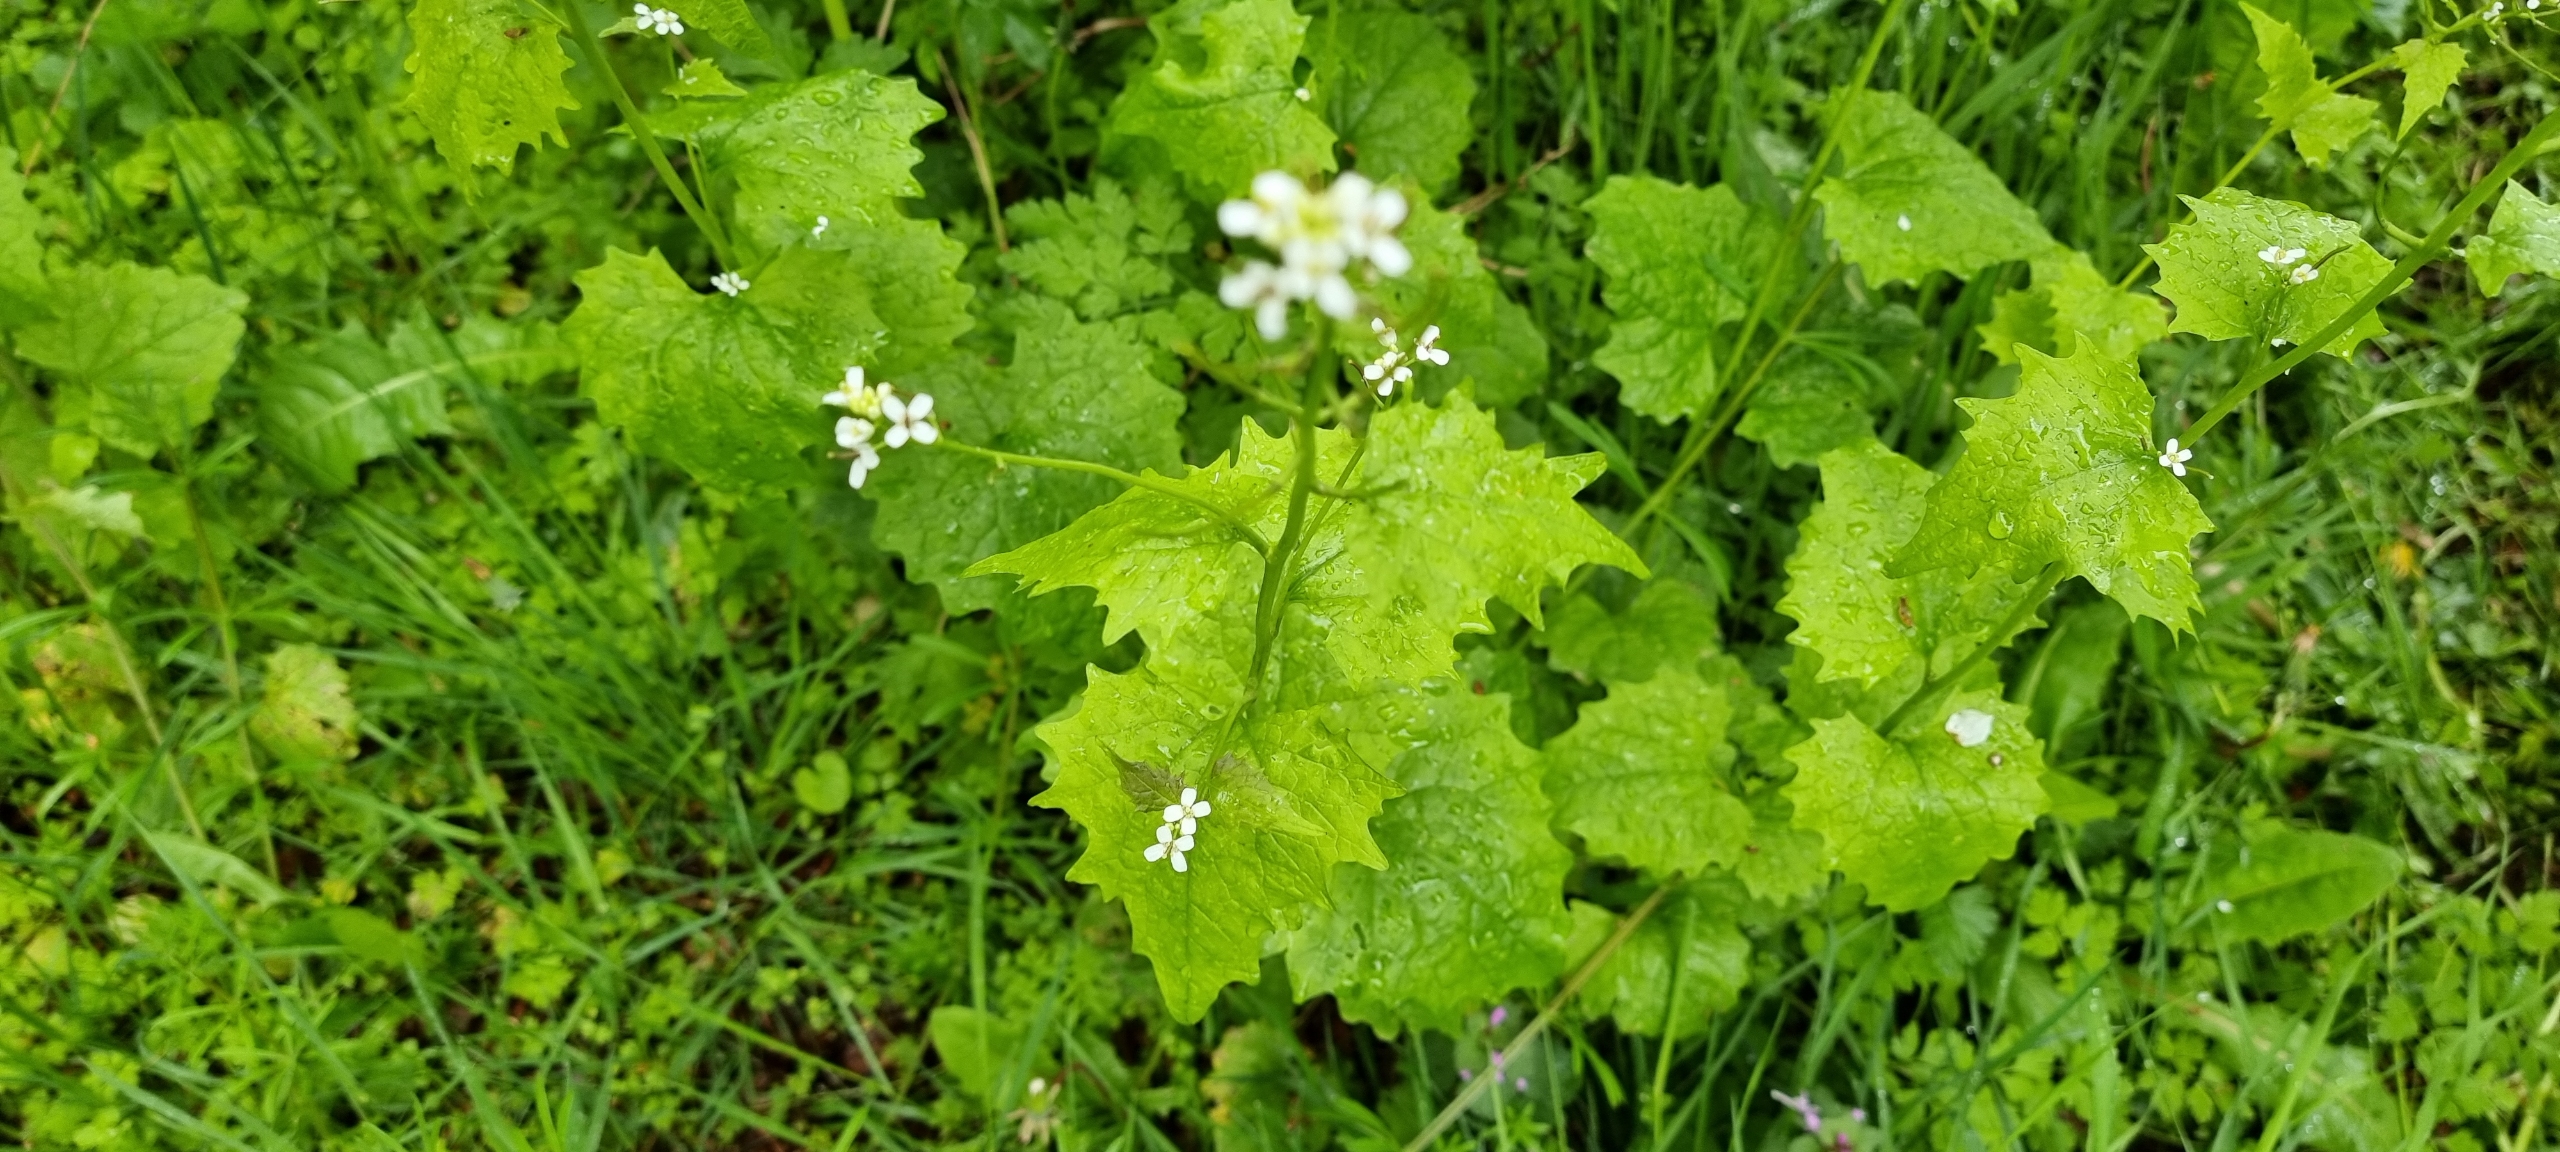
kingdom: Plantae
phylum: Tracheophyta
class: Magnoliopsida
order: Brassicales
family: Brassicaceae
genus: Alliaria
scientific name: Alliaria petiolata
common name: Løgkarse
